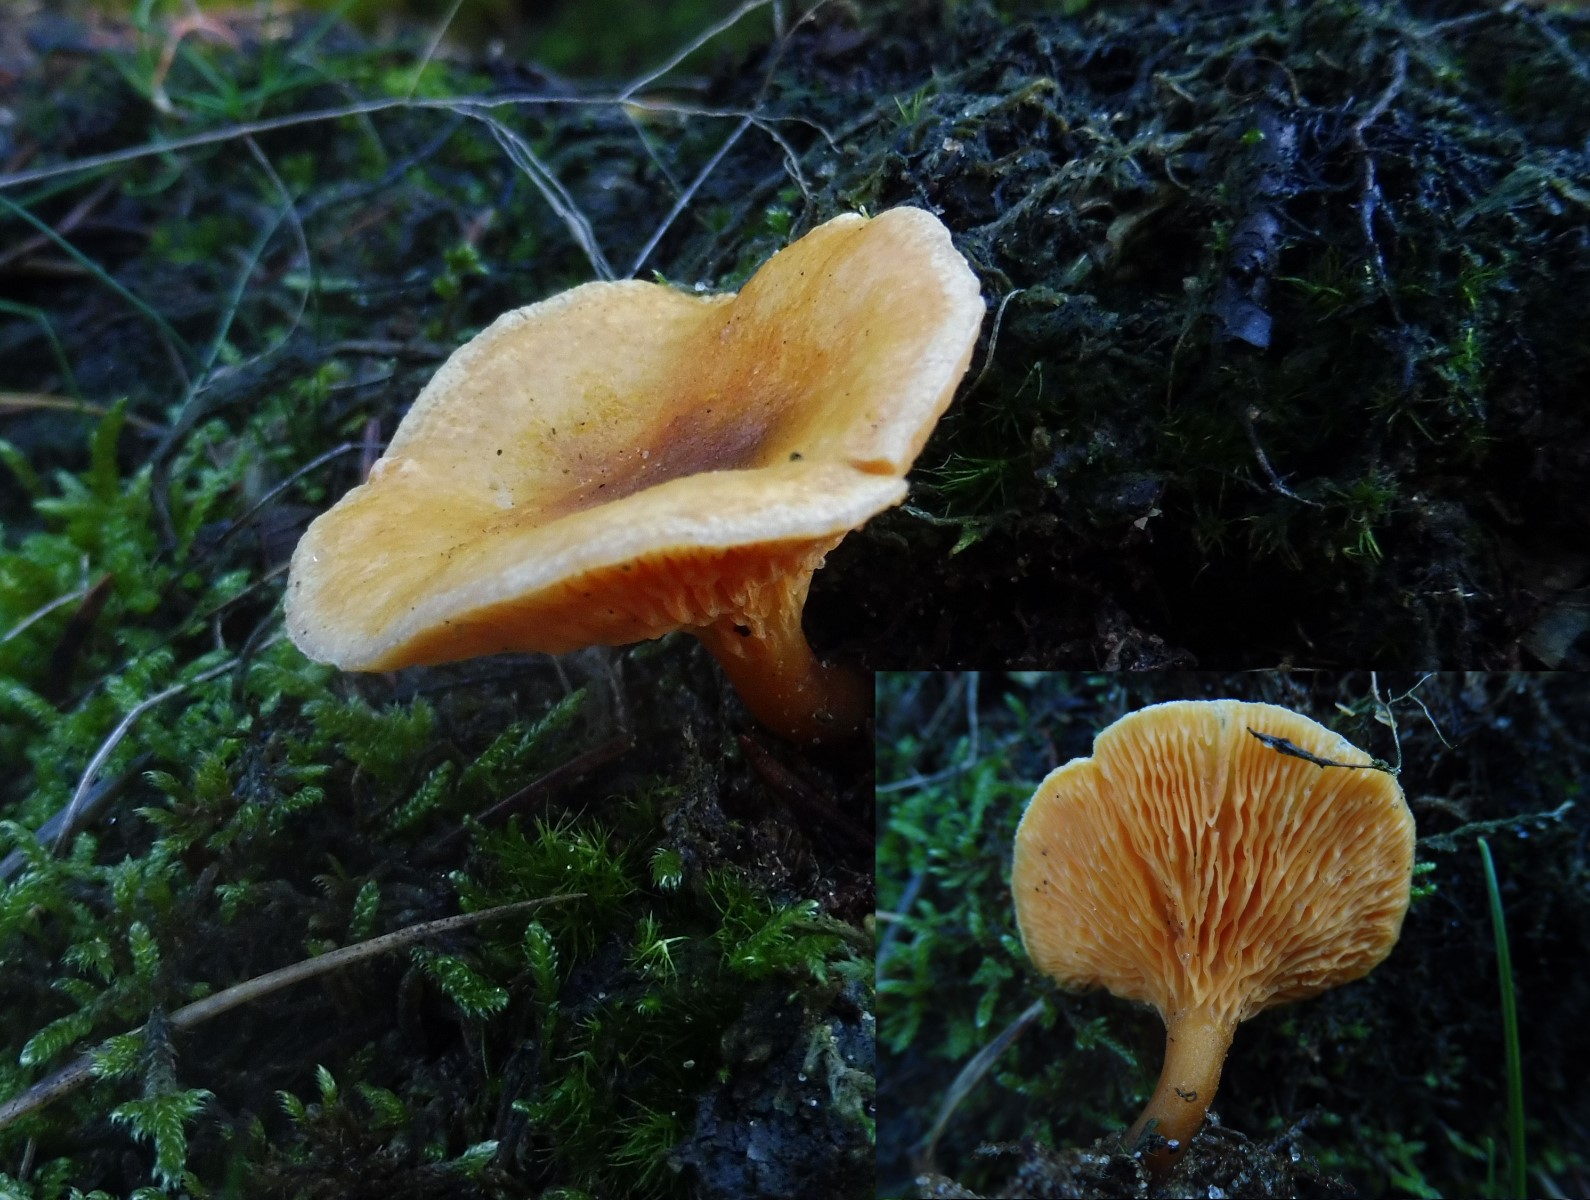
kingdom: Fungi
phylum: Basidiomycota
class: Agaricomycetes
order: Boletales
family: Hygrophoropsidaceae
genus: Hygrophoropsis
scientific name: Hygrophoropsis aurantiaca
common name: almindelig orangekantarel
